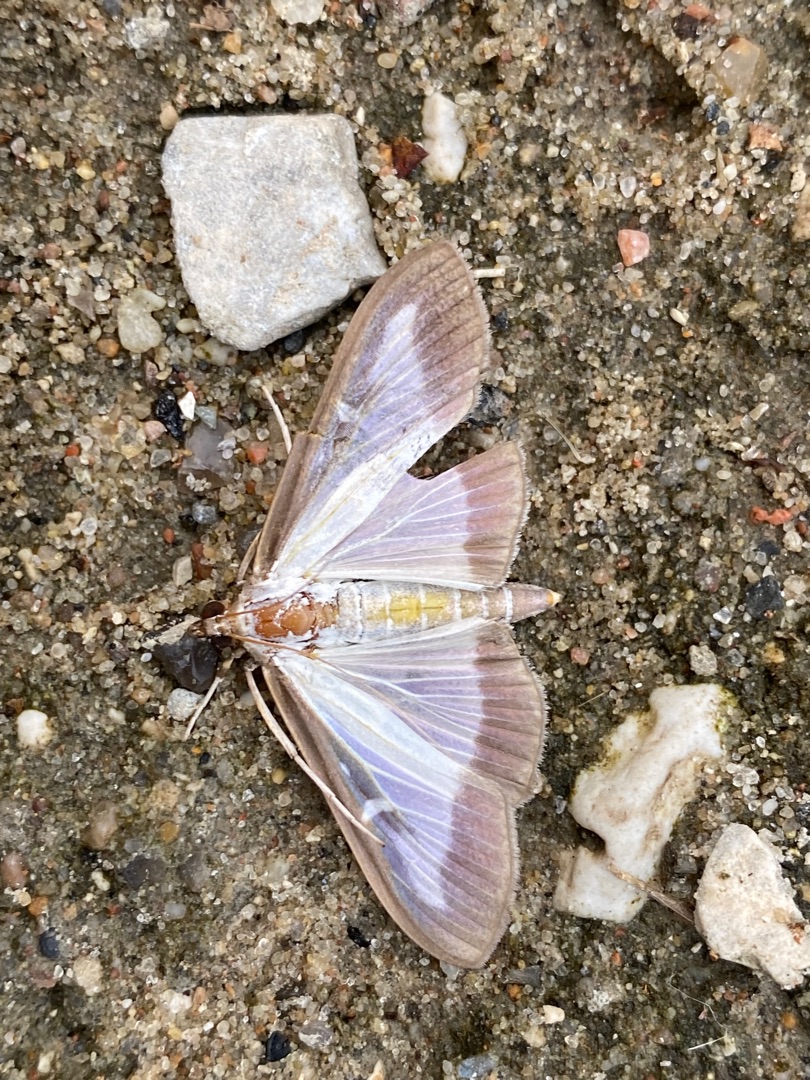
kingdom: Animalia
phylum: Arthropoda
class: Insecta
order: Lepidoptera
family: Crambidae
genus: Cydalima
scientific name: Cydalima perspectalis
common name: Buksbomhalvmøl
